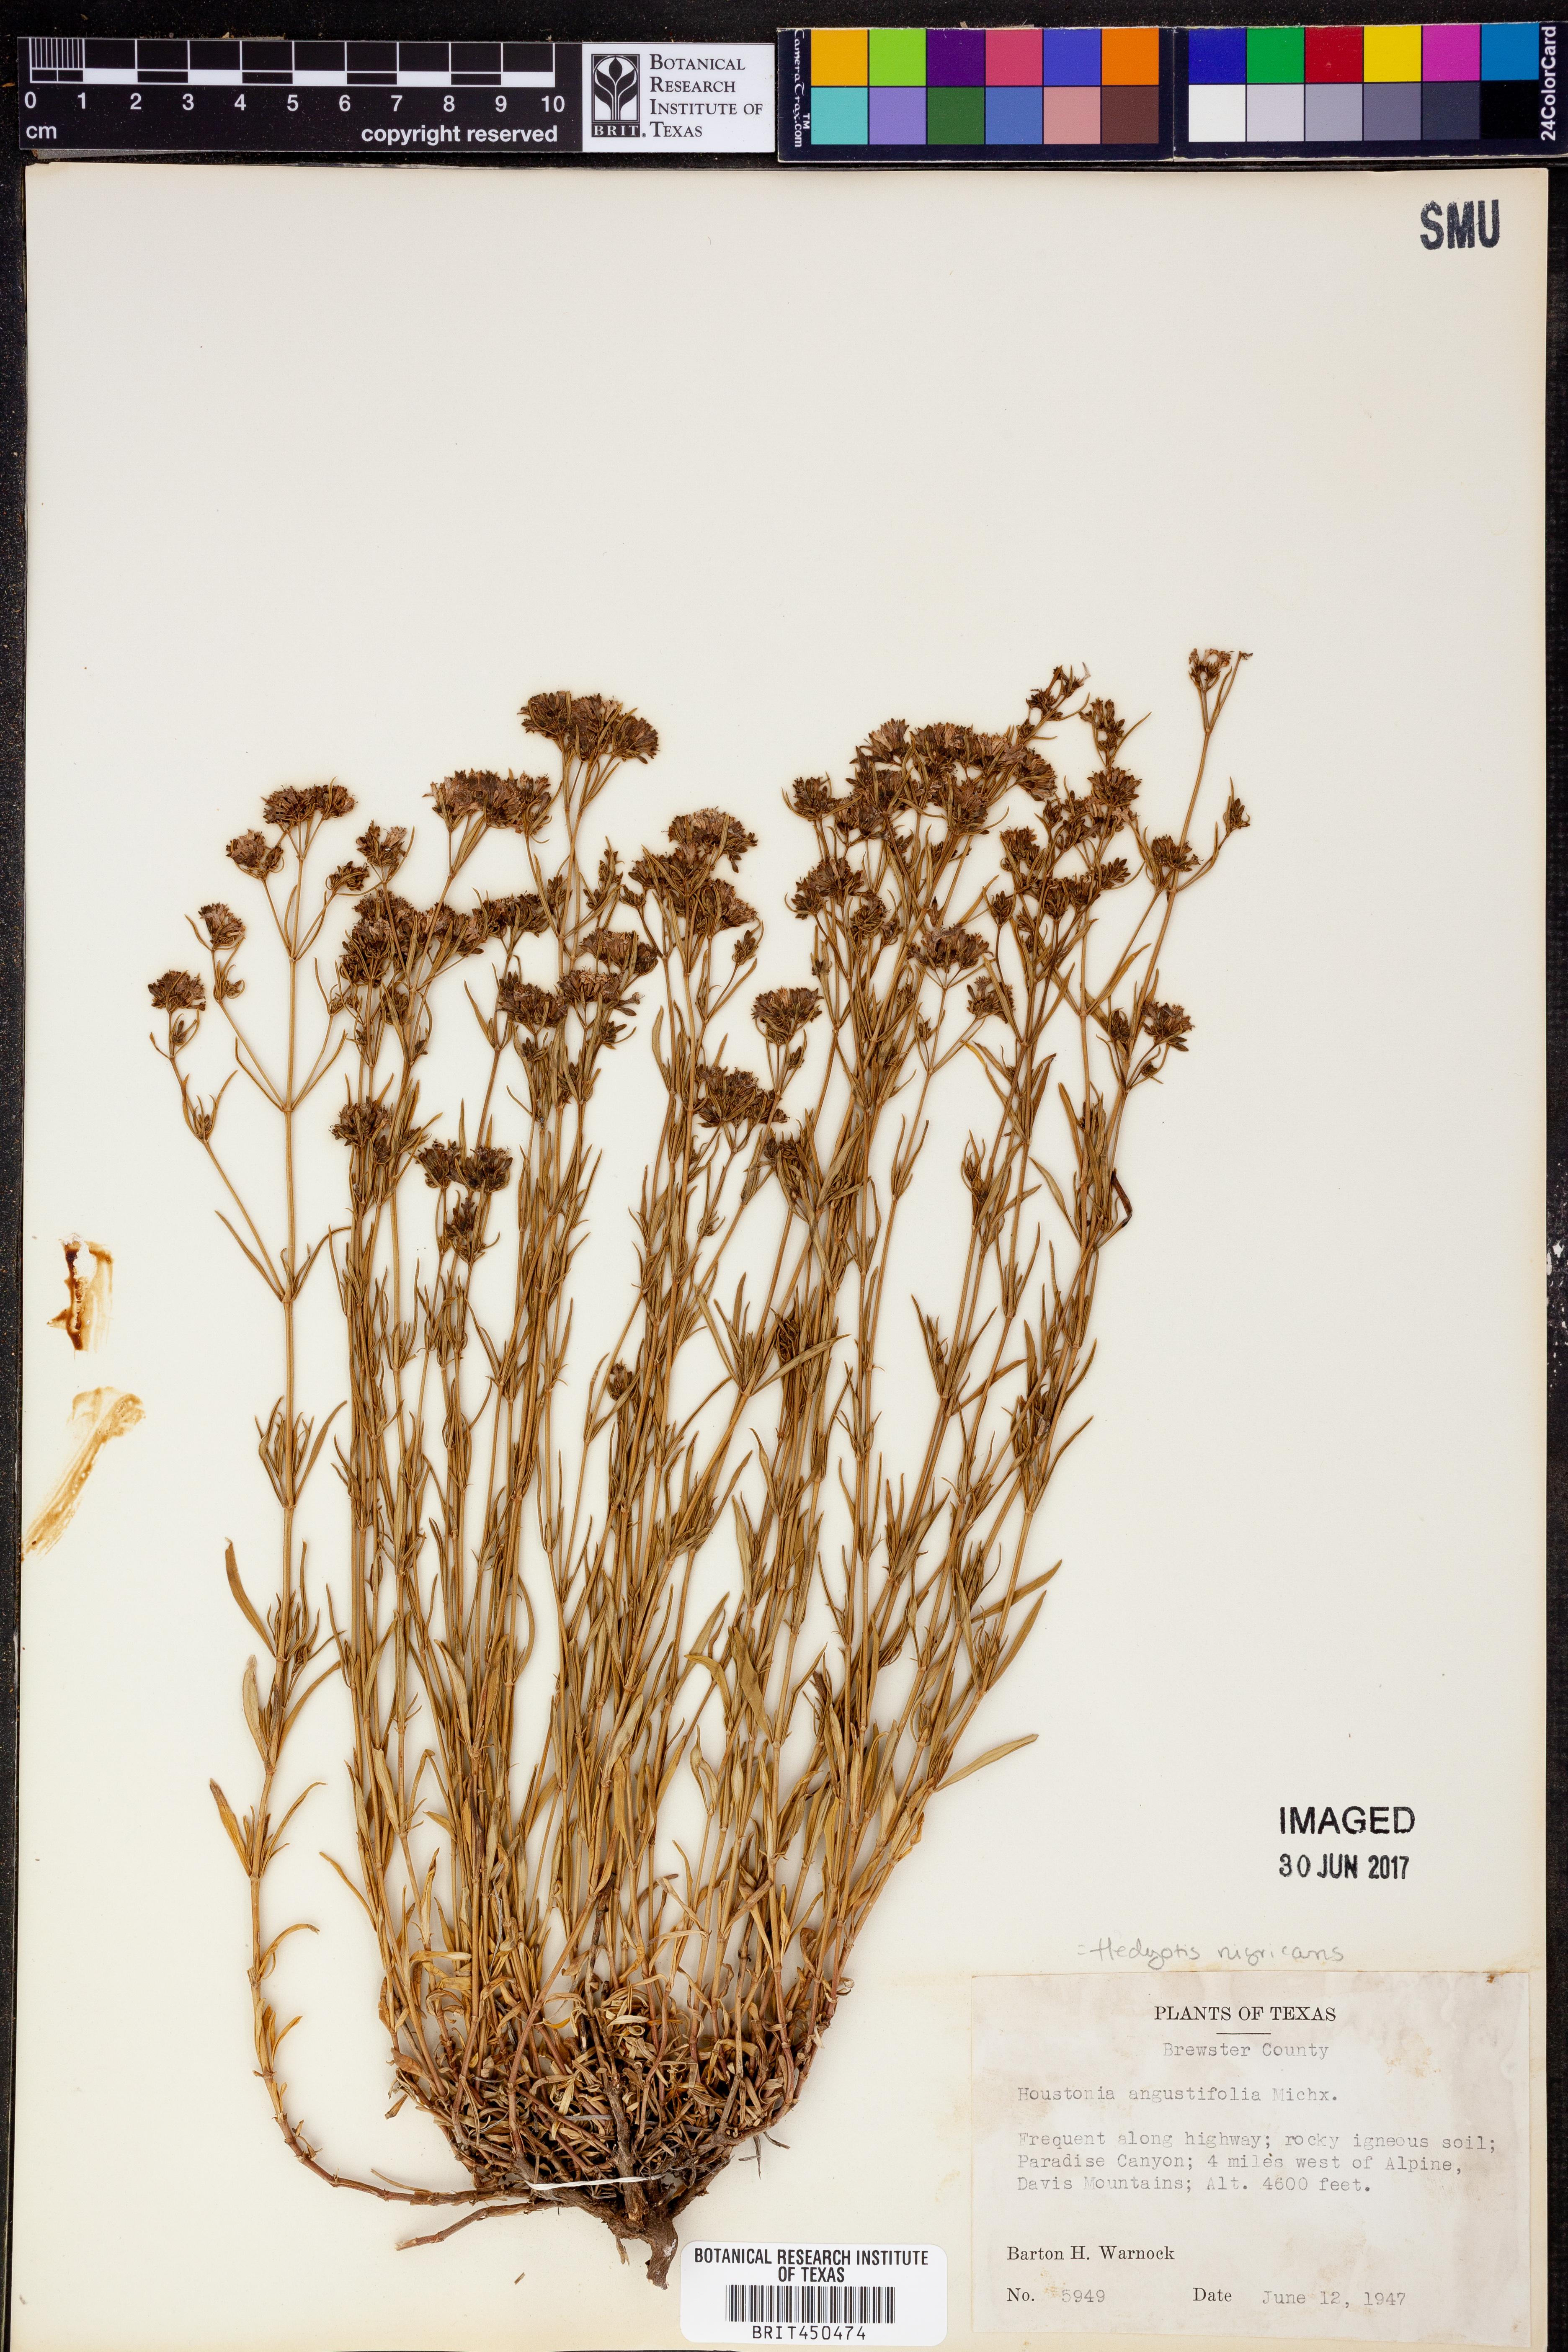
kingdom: Plantae
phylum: Tracheophyta
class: Magnoliopsida
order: Gentianales
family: Rubiaceae
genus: Stenaria
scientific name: Stenaria nigricans
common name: Diamondflowers
